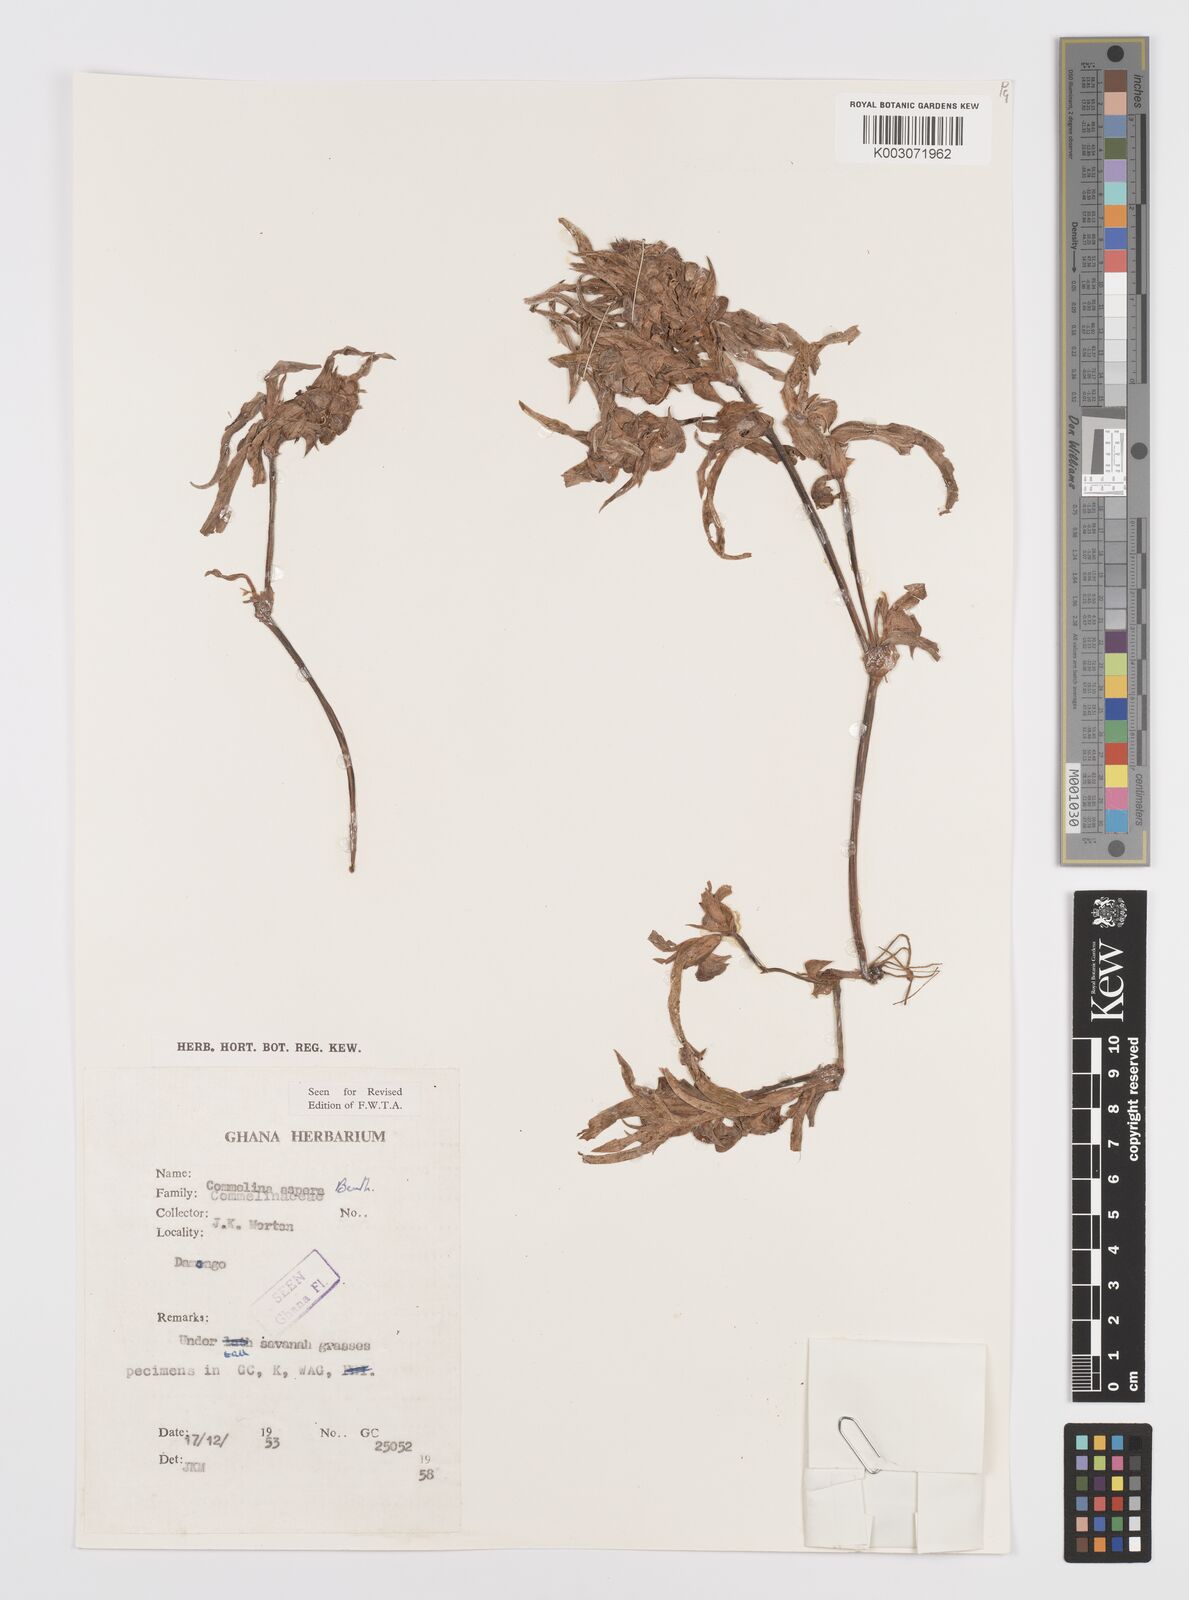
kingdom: Plantae
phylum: Tracheophyta
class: Liliopsida
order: Commelinales
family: Commelinaceae
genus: Commelina
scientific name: Commelina aspera
